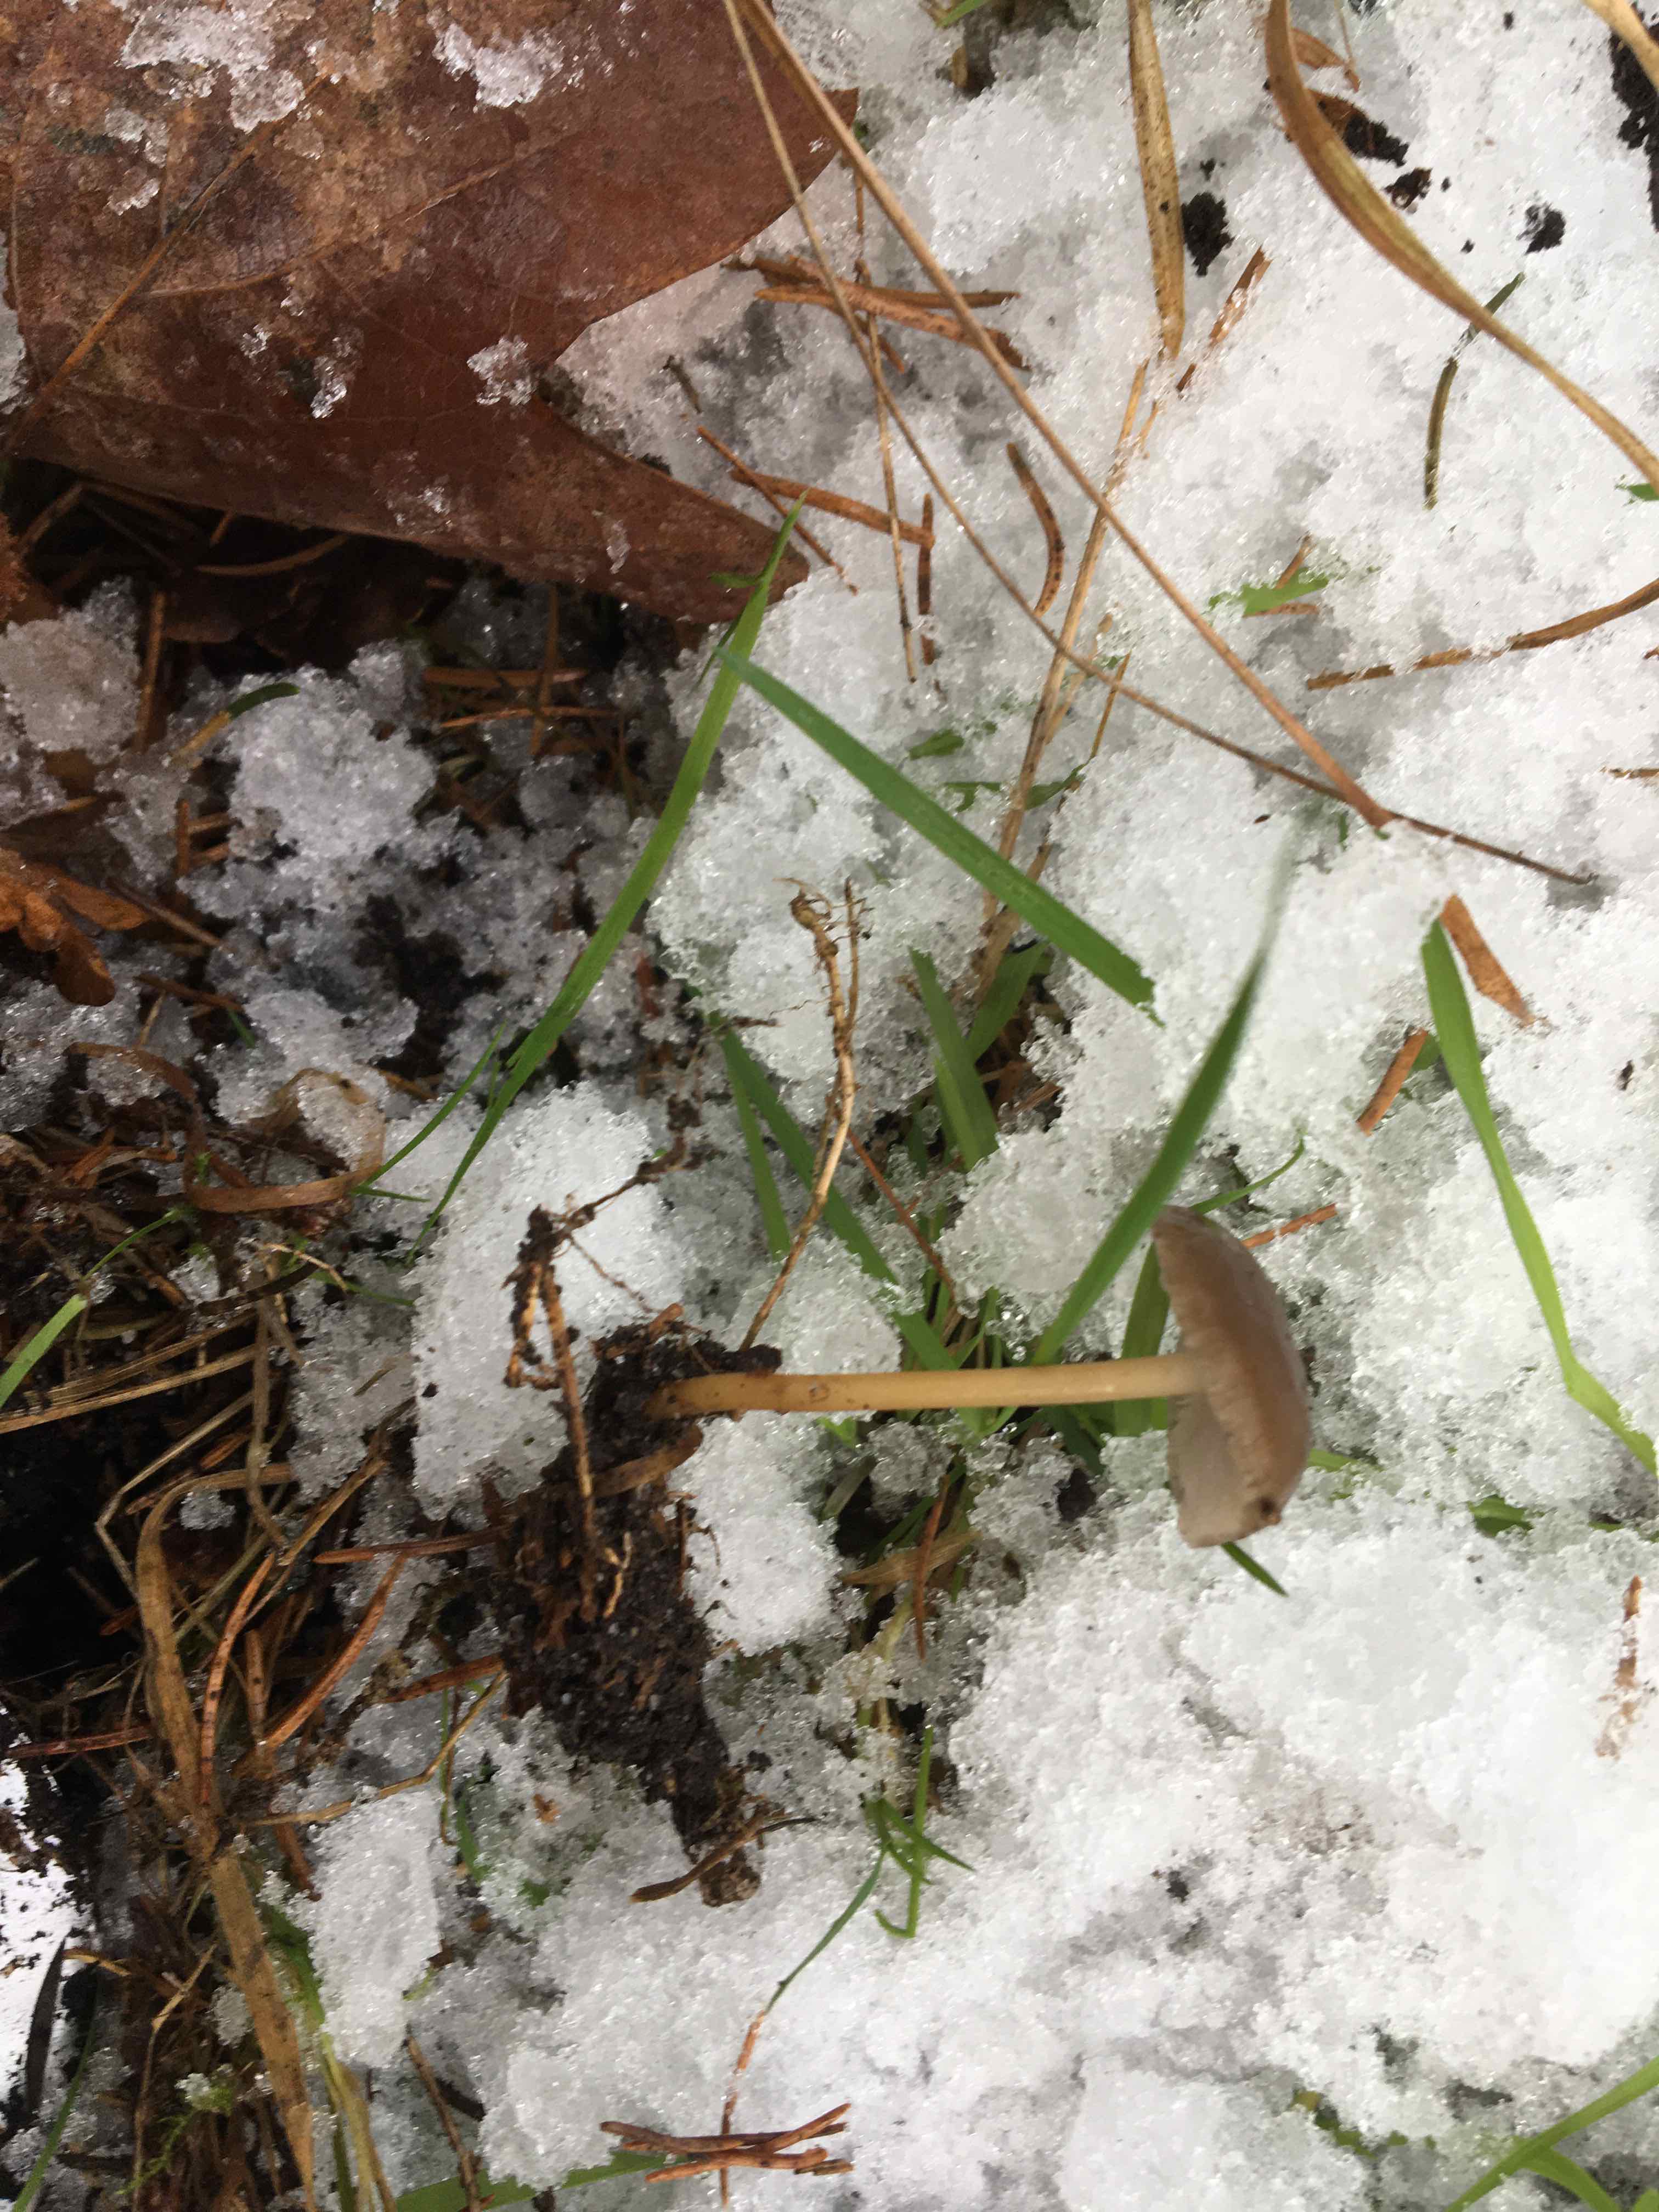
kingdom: Fungi
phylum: Basidiomycota
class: Agaricomycetes
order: Agaricales
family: Physalacriaceae
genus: Strobilurus
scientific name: Strobilurus esculentus
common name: gran-koglehat
